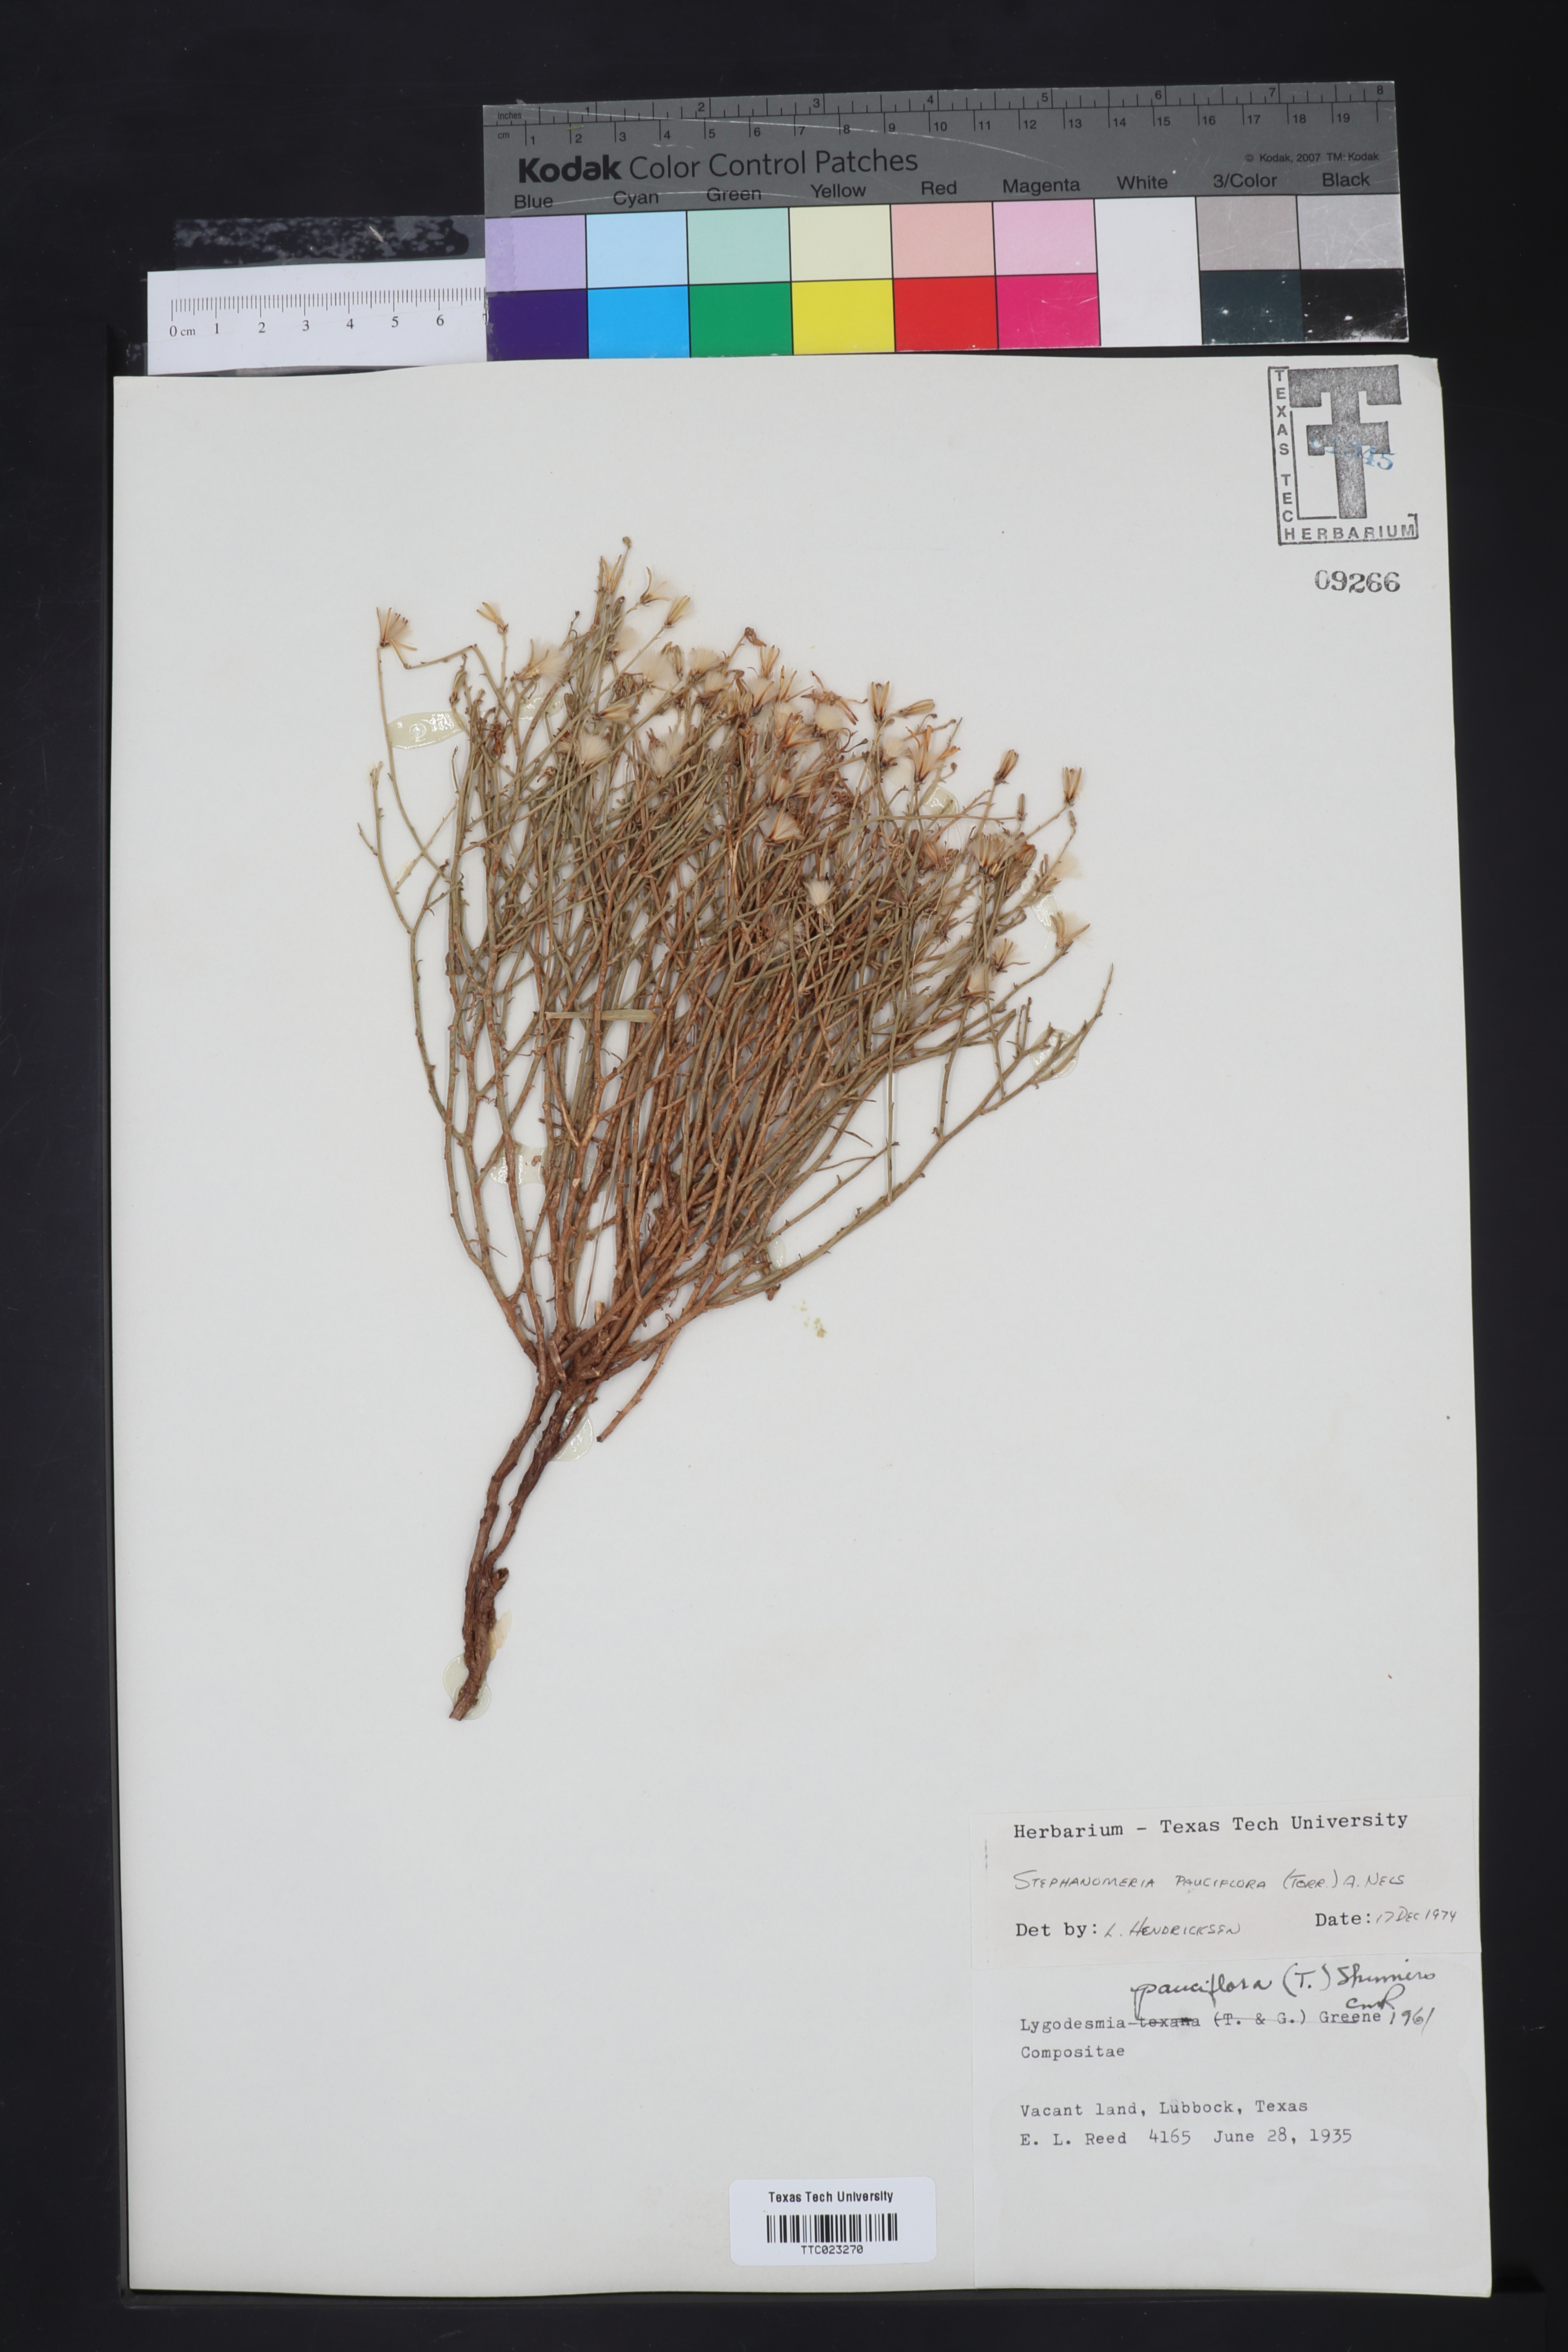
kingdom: Plantae
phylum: Tracheophyta
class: Magnoliopsida
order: Asterales
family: Asteraceae
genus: Stephanomeria
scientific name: Stephanomeria pauciflora
